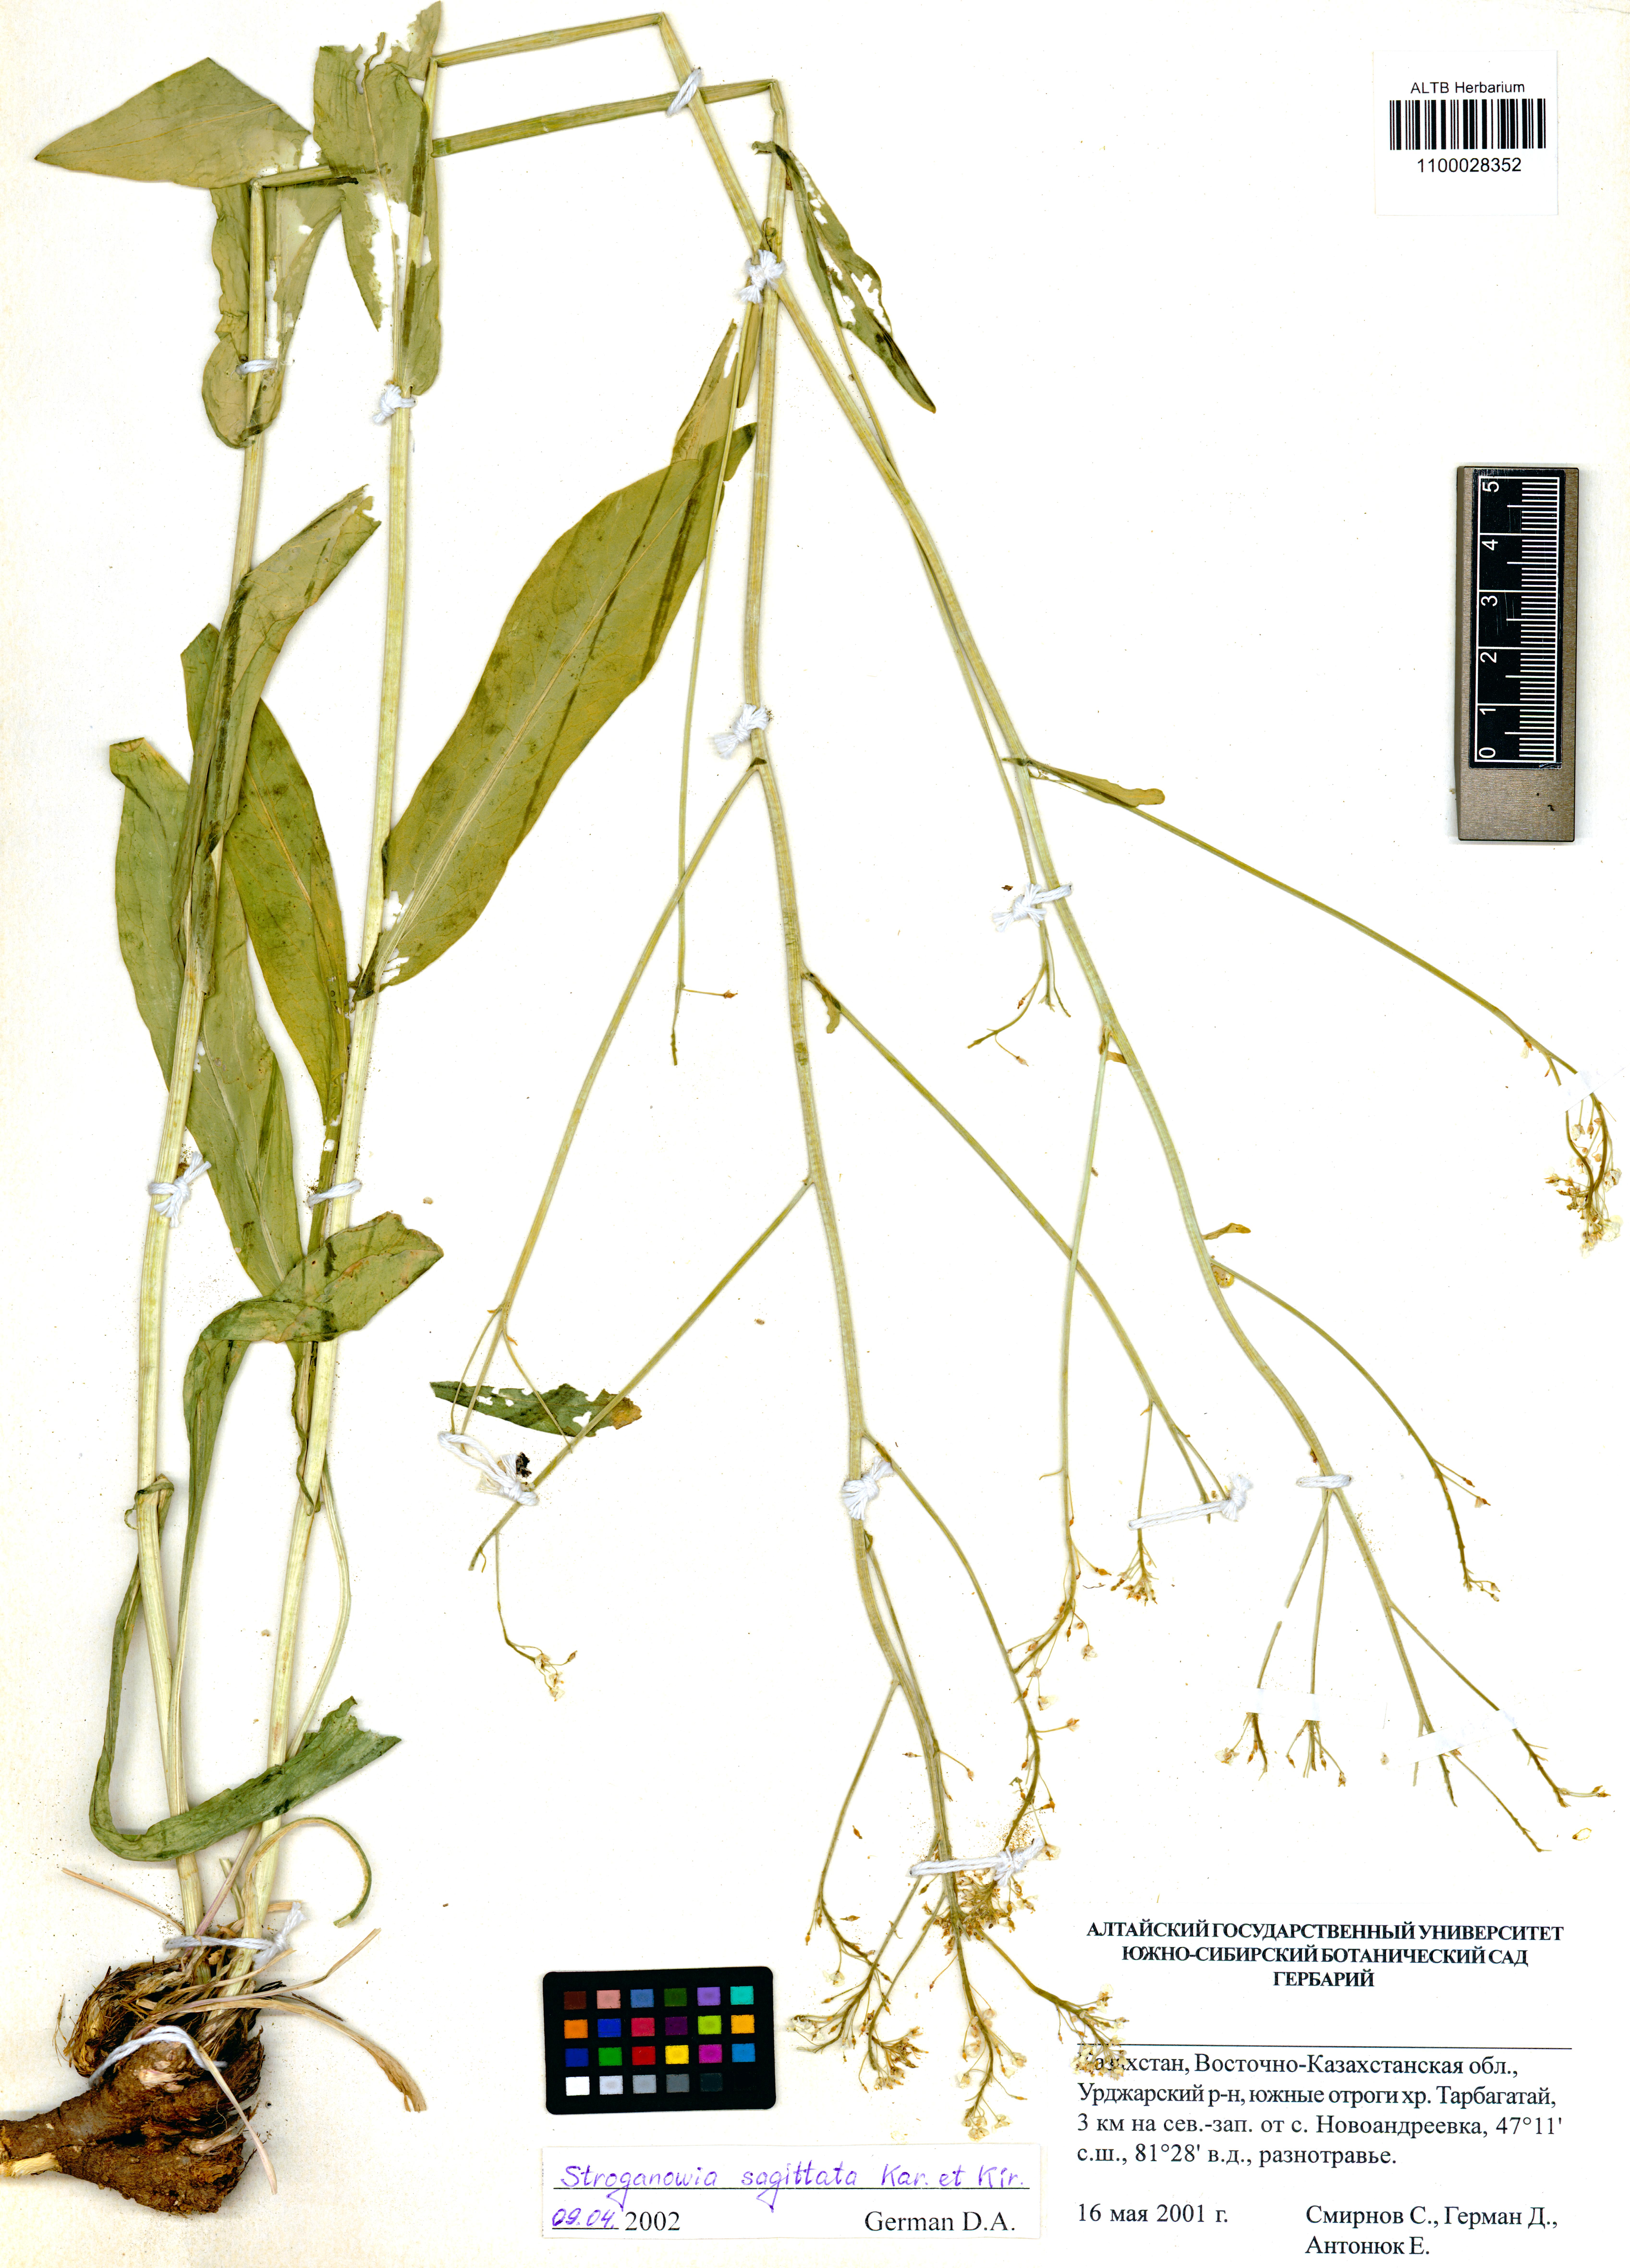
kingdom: Plantae
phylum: Tracheophyta
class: Magnoliopsida
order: Brassicales
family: Brassicaceae
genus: Lepidium
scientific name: Lepidium sagittatum
